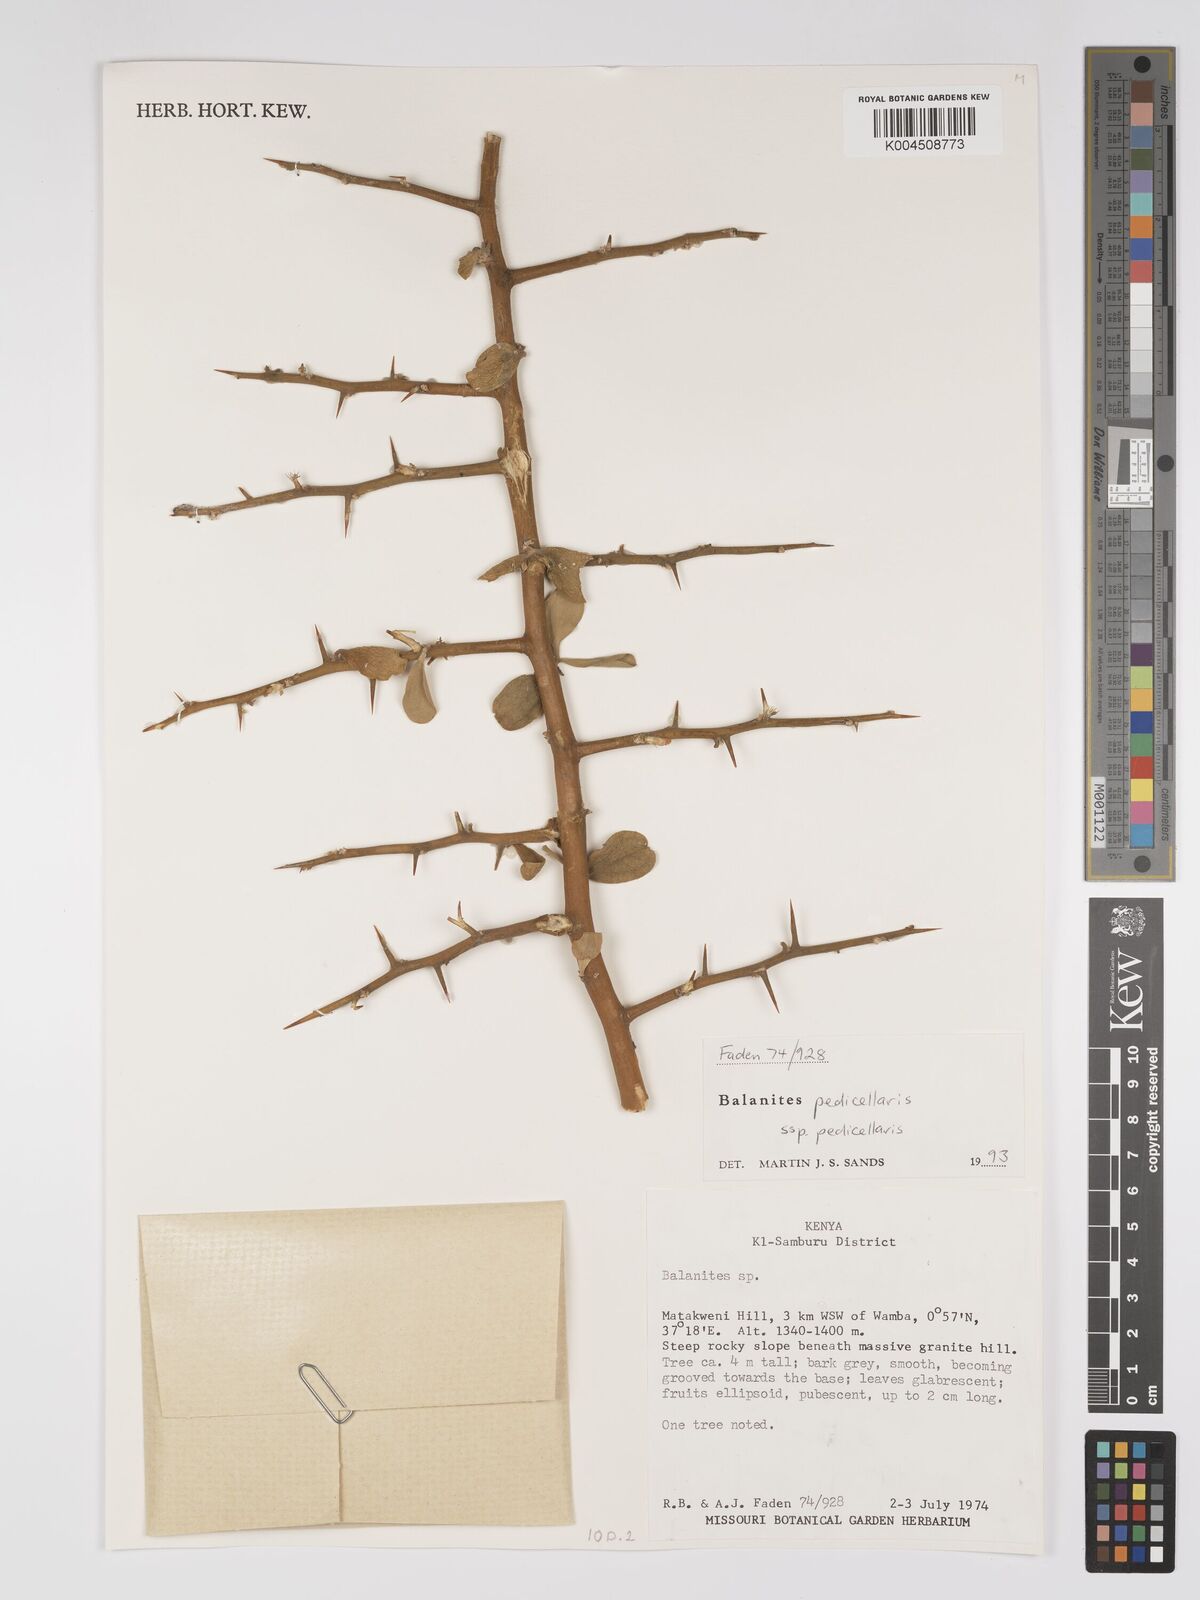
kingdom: Plantae
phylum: Tracheophyta
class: Magnoliopsida
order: Zygophyllales
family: Zygophyllaceae
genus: Balanites
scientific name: Balanites pedicellaris
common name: Small green-thorn
